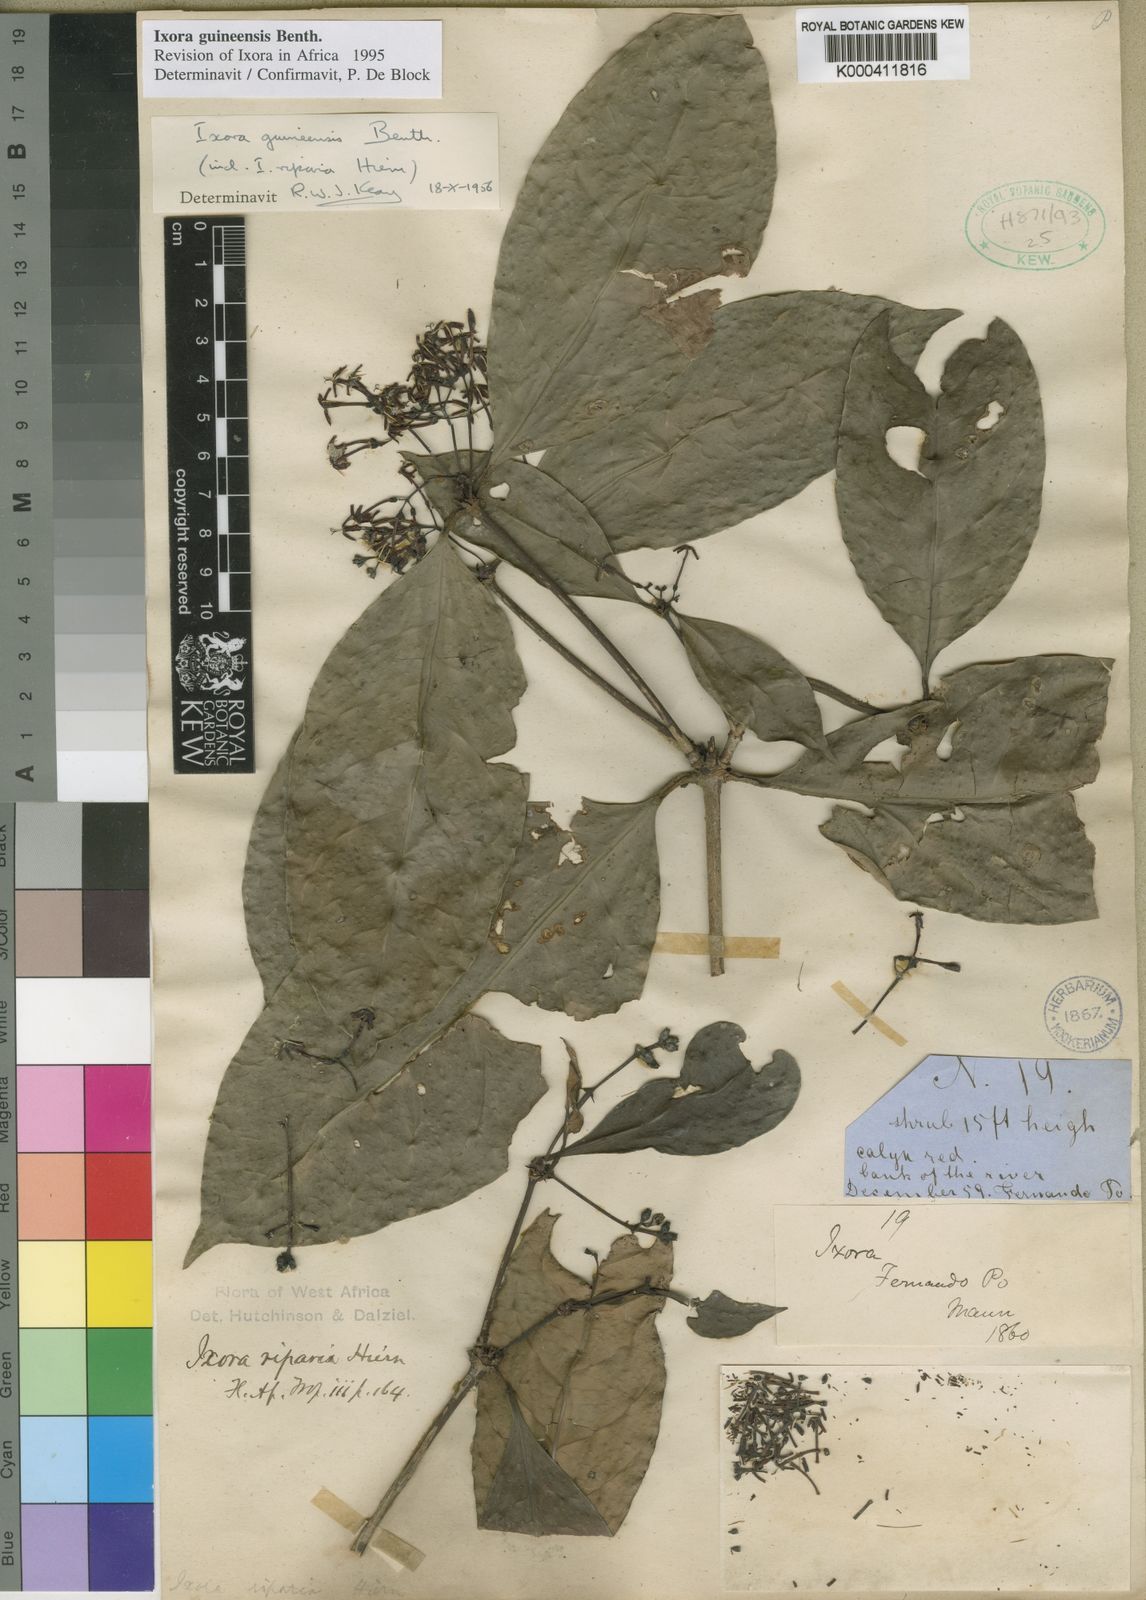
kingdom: Plantae
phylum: Tracheophyta
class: Magnoliopsida
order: Gentianales
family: Rubiaceae
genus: Ixora
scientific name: Ixora guineensis
